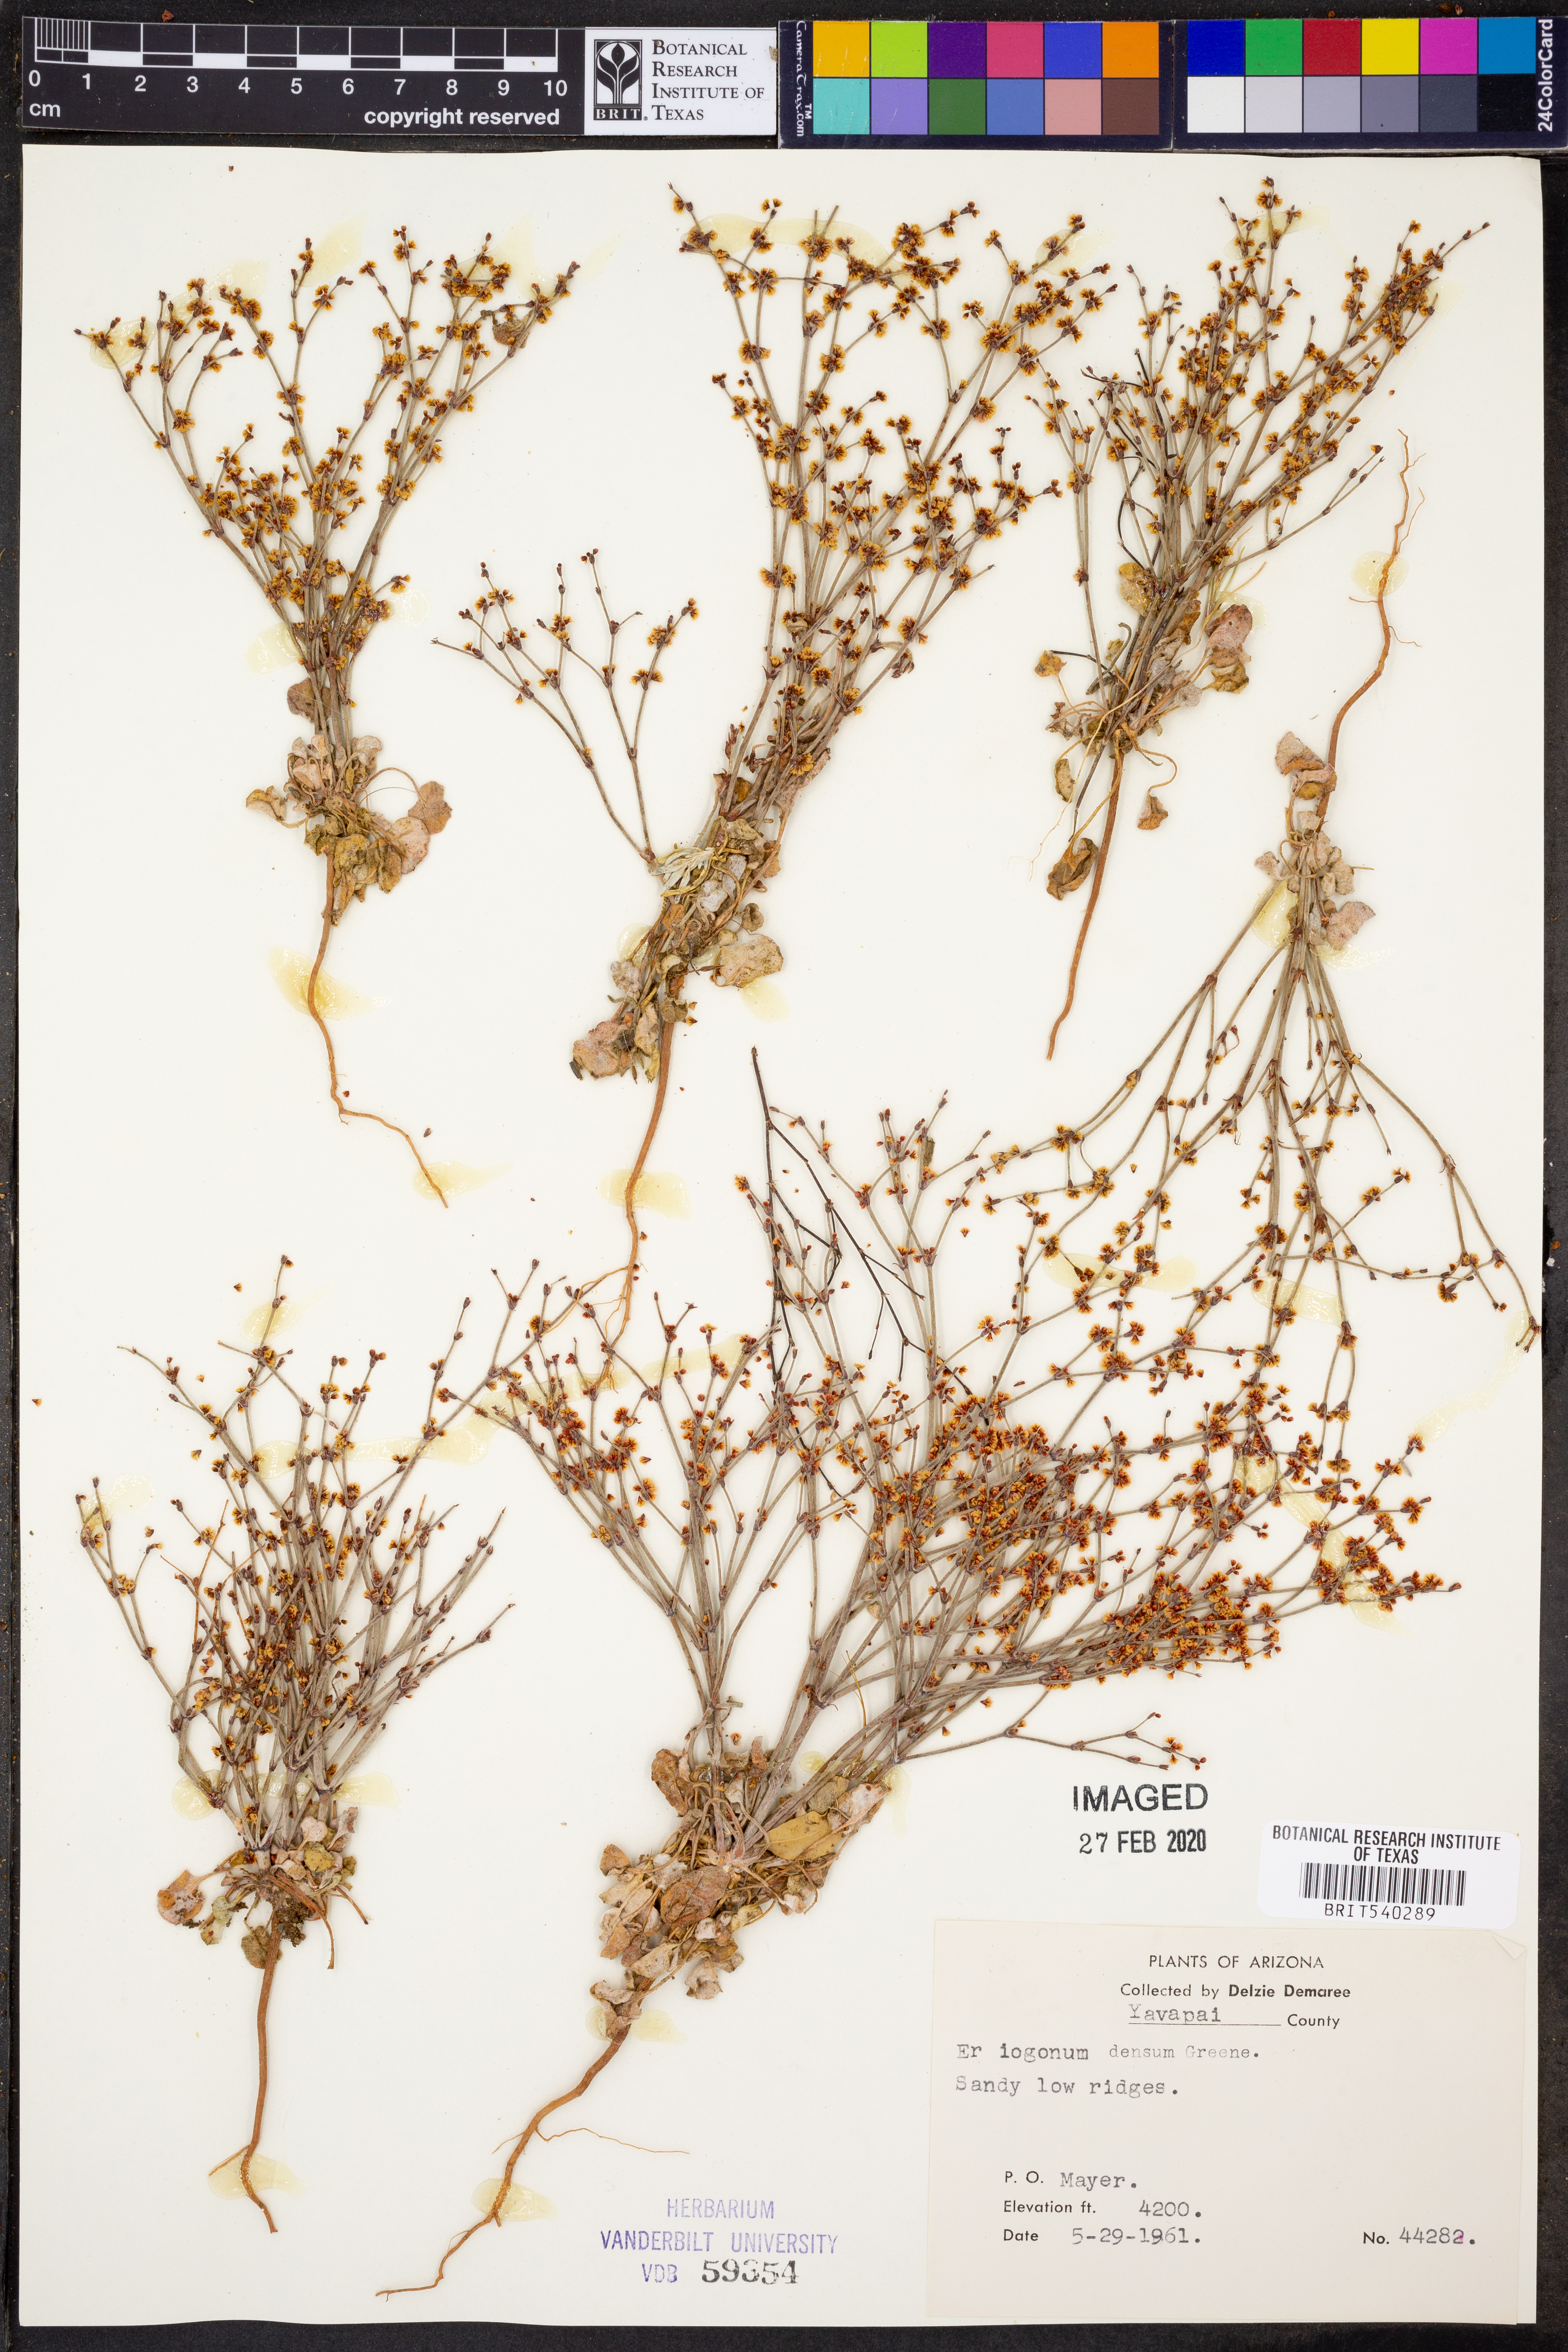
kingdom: Plantae
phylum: Tracheophyta
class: Magnoliopsida
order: Caryophyllales
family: Polygonaceae
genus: Eriogonum
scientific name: Eriogonum polycladon
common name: Sorrel wild buckwheat
